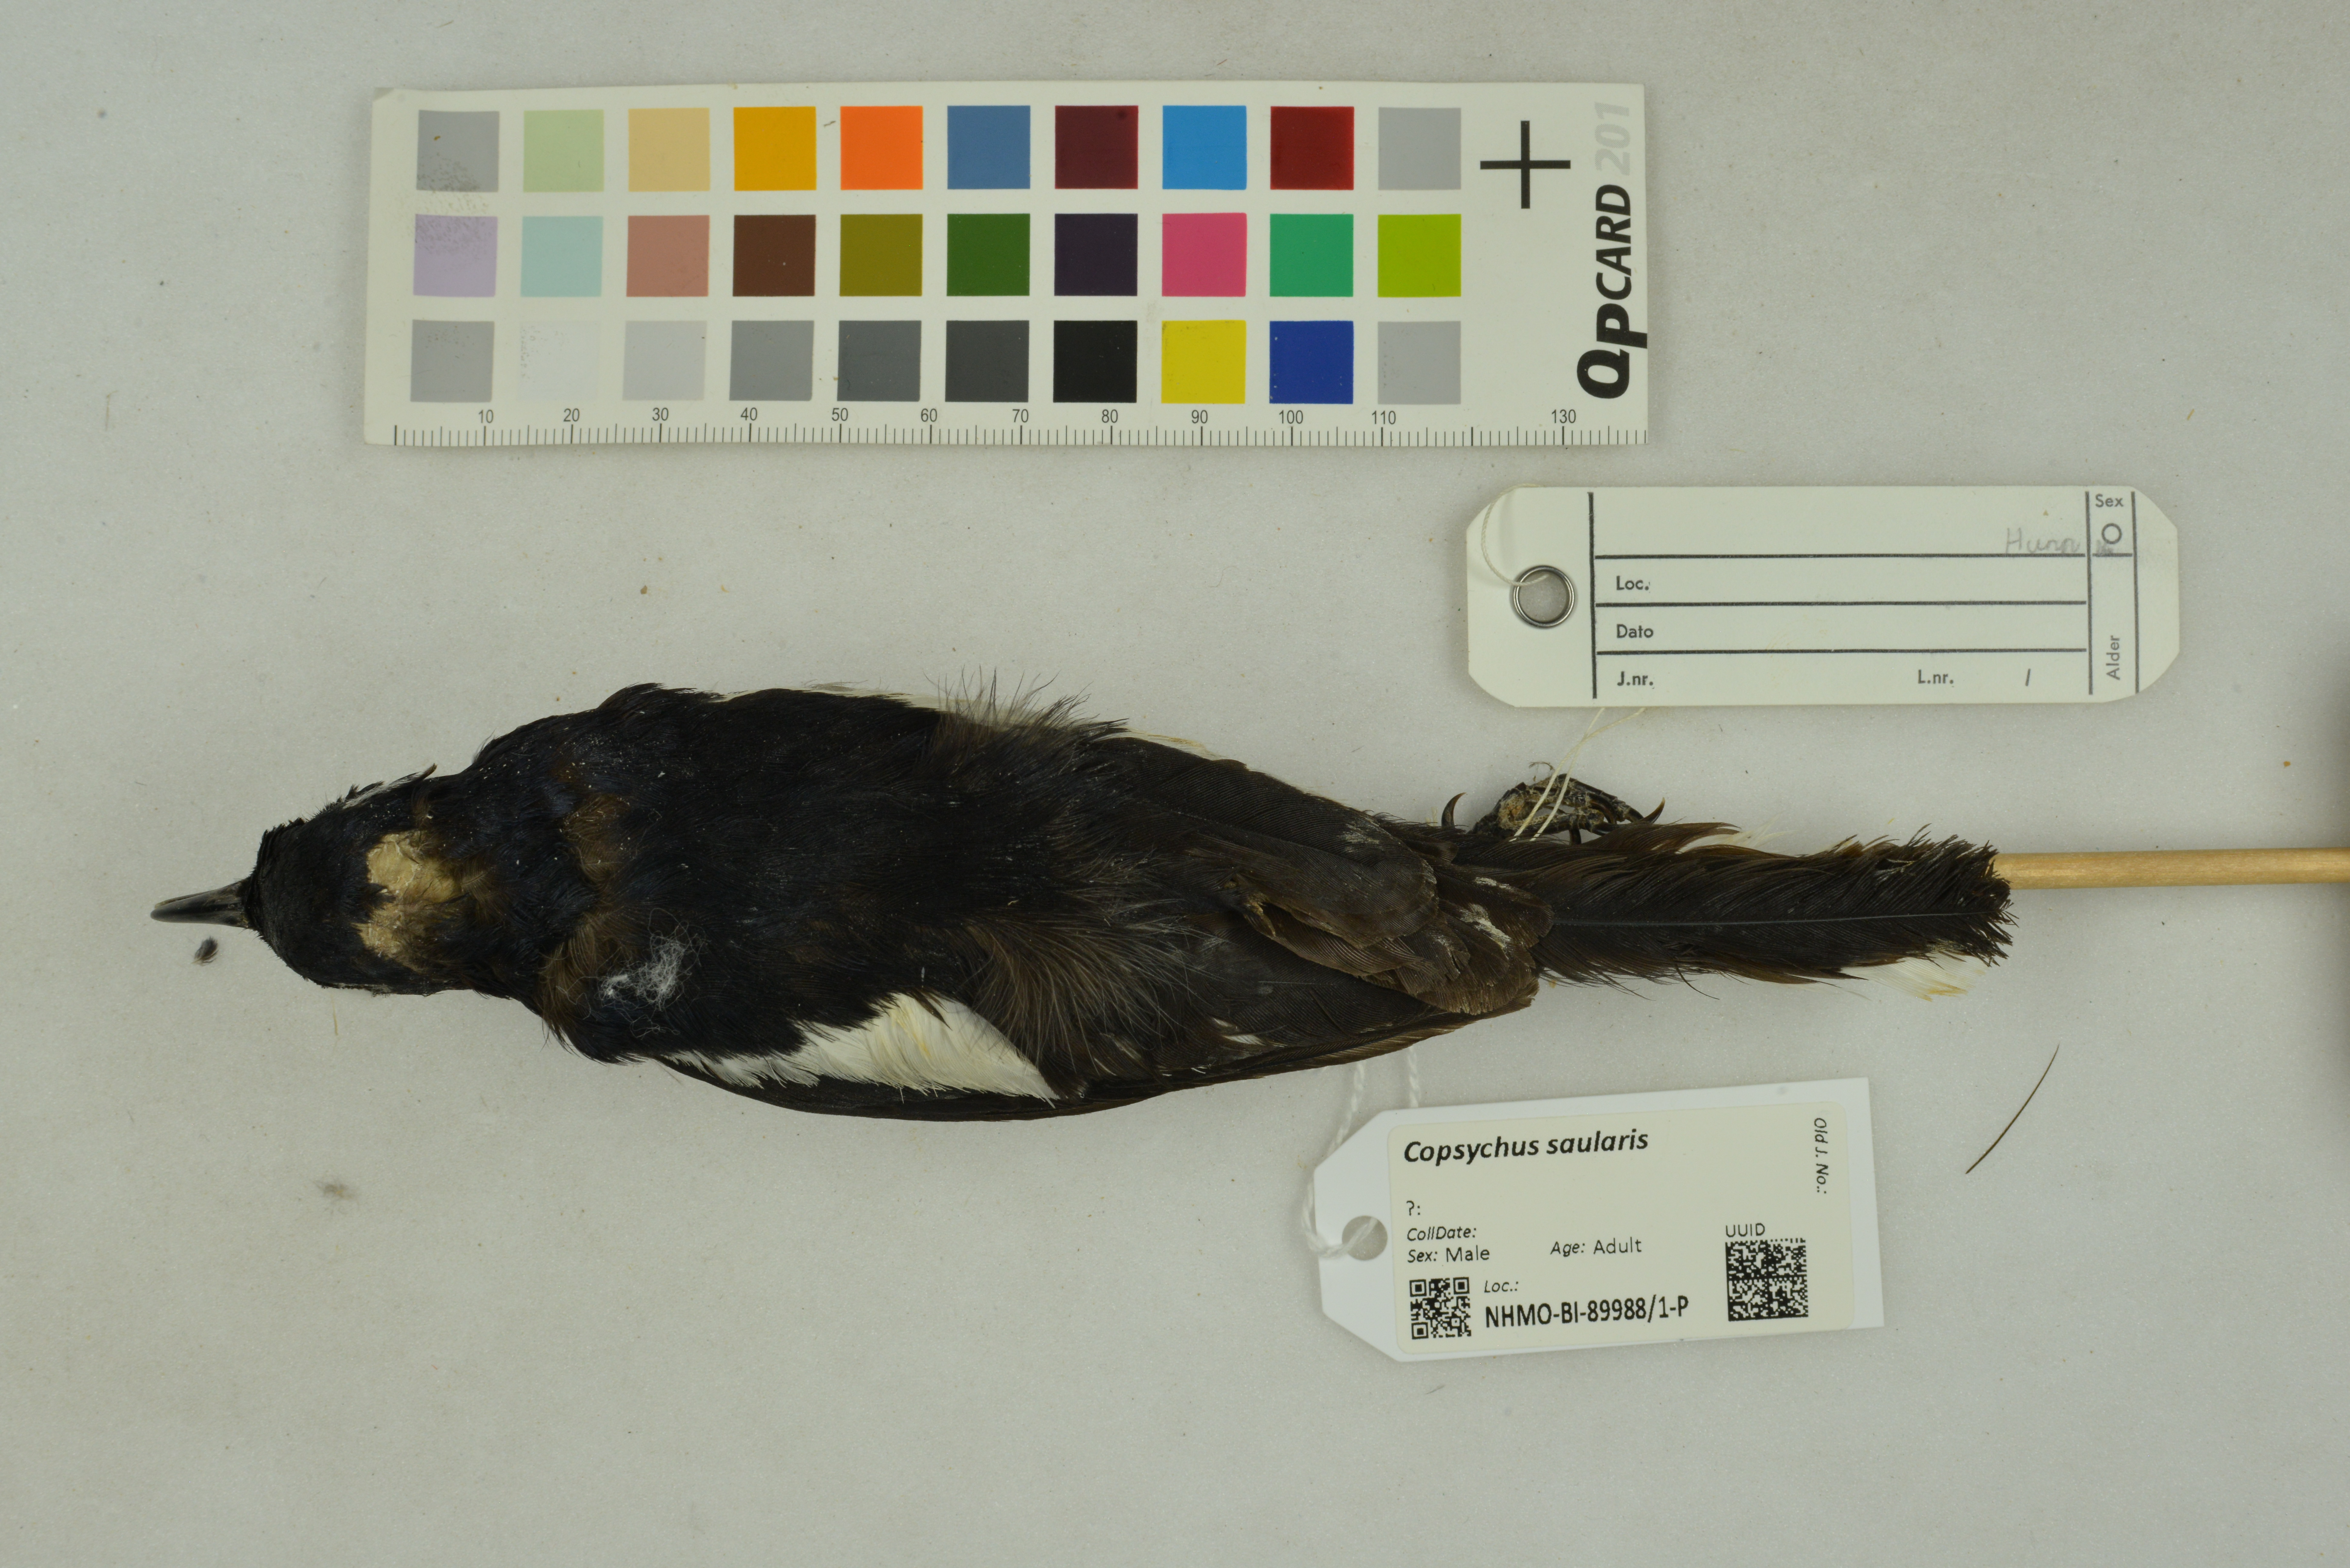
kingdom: Animalia
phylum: Chordata
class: Aves
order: Passeriformes
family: Muscicapidae
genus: Copsychus
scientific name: Copsychus saularis
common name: Oriental magpie-robin
